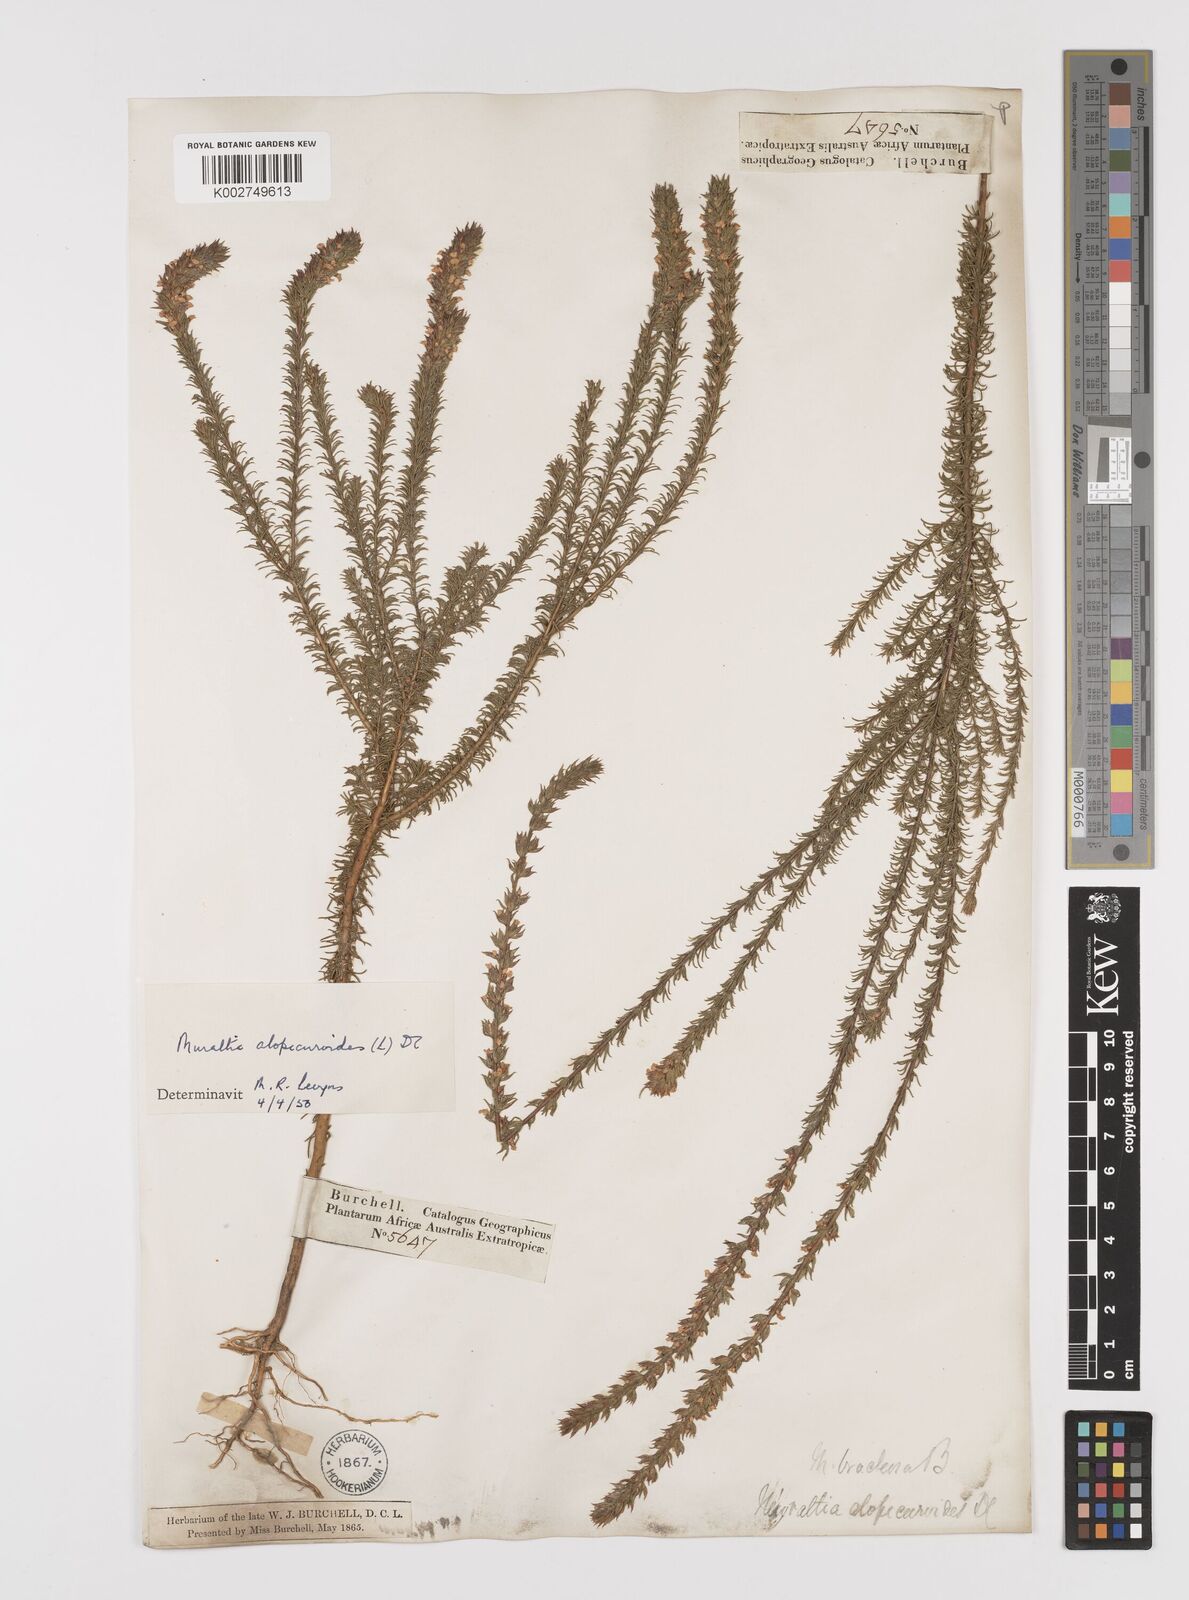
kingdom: Plantae
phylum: Tracheophyta
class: Magnoliopsida
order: Fabales
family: Polygalaceae
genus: Muraltia
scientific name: Muraltia alopecuroides
